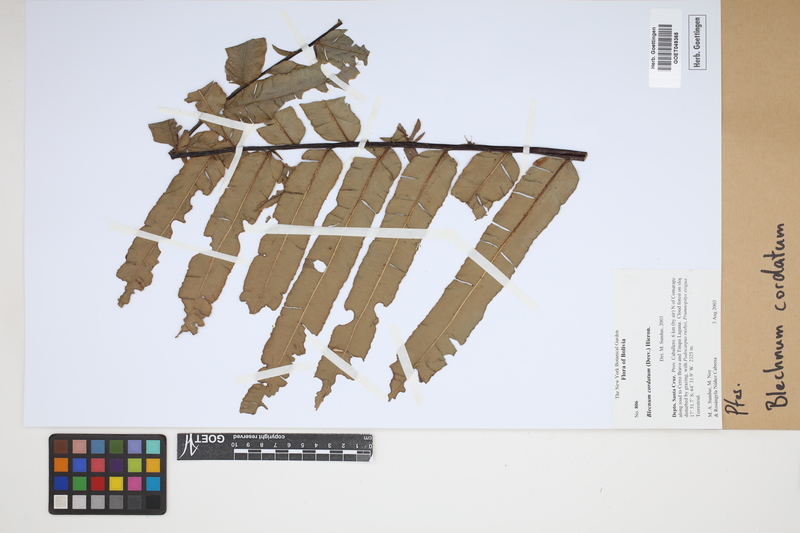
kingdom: Plantae
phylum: Tracheophyta
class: Polypodiopsida
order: Polypodiales
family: Blechnaceae
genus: Parablechnum
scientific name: Parablechnum cordatum
